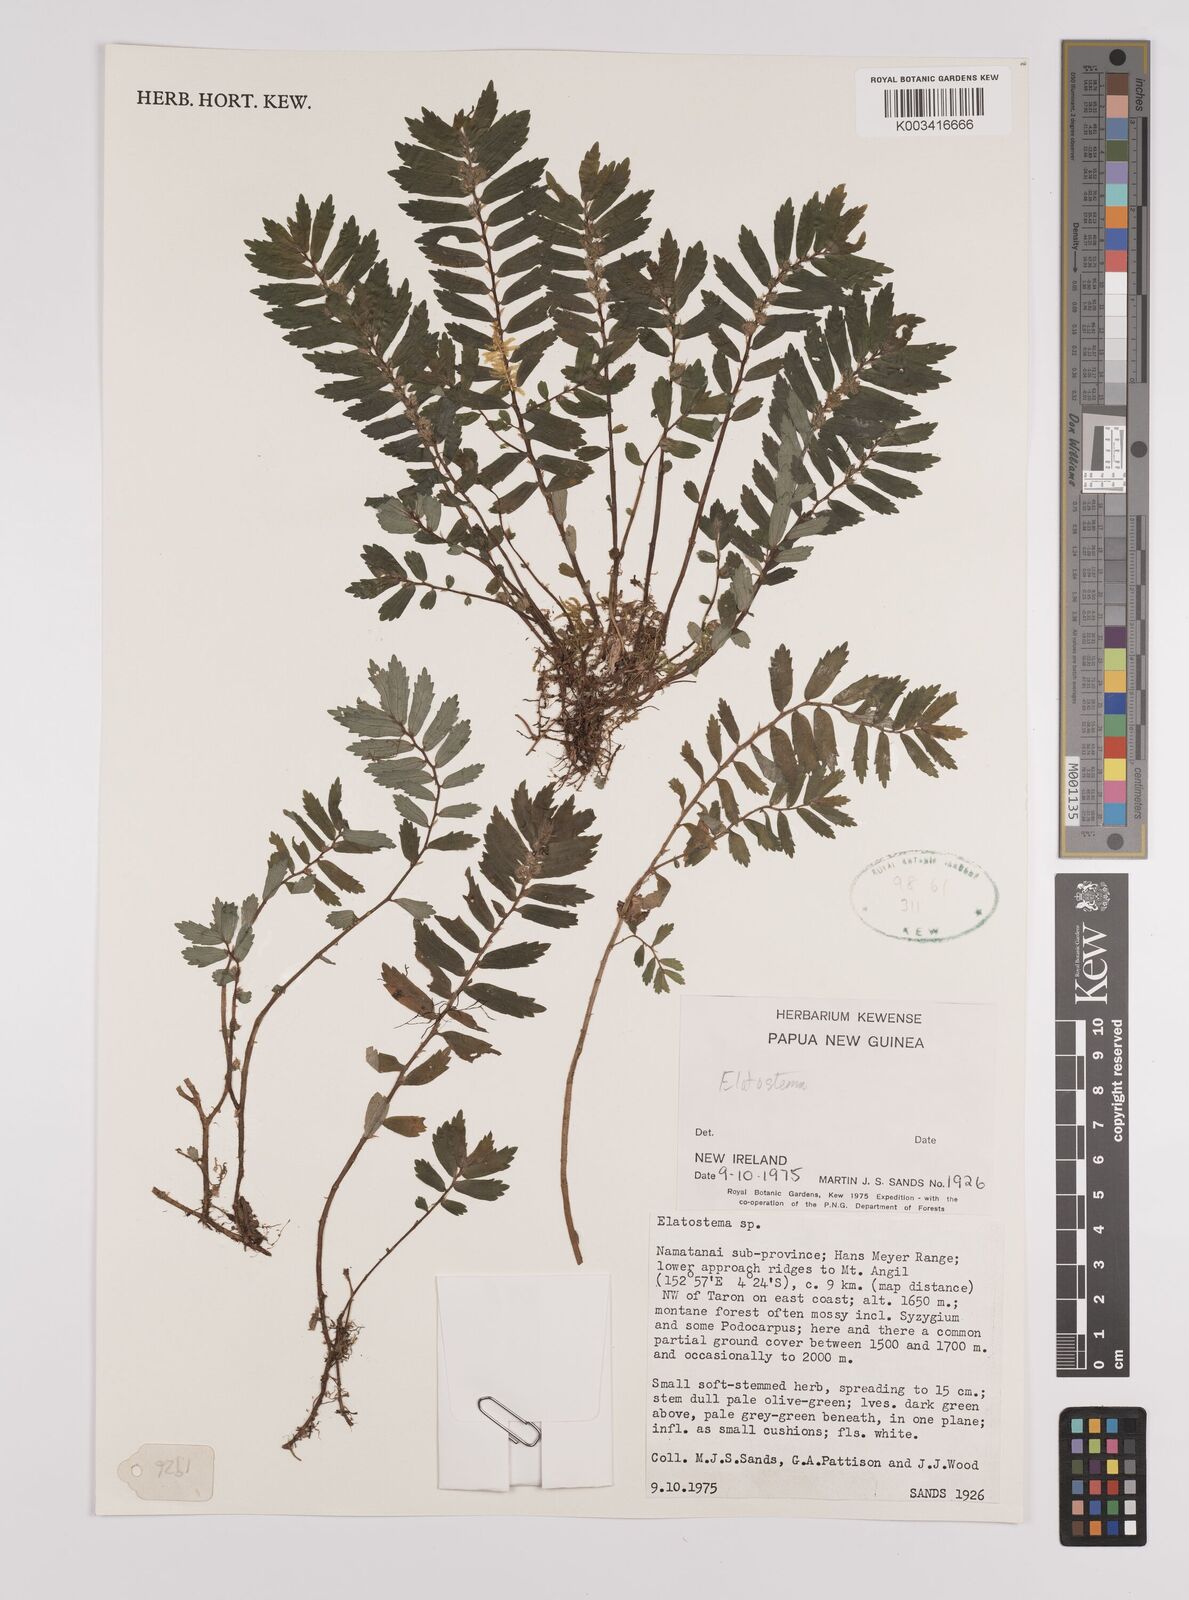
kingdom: Plantae
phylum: Tracheophyta
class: Magnoliopsida
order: Rosales
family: Urticaceae
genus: Elatostema
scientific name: Elatostema
